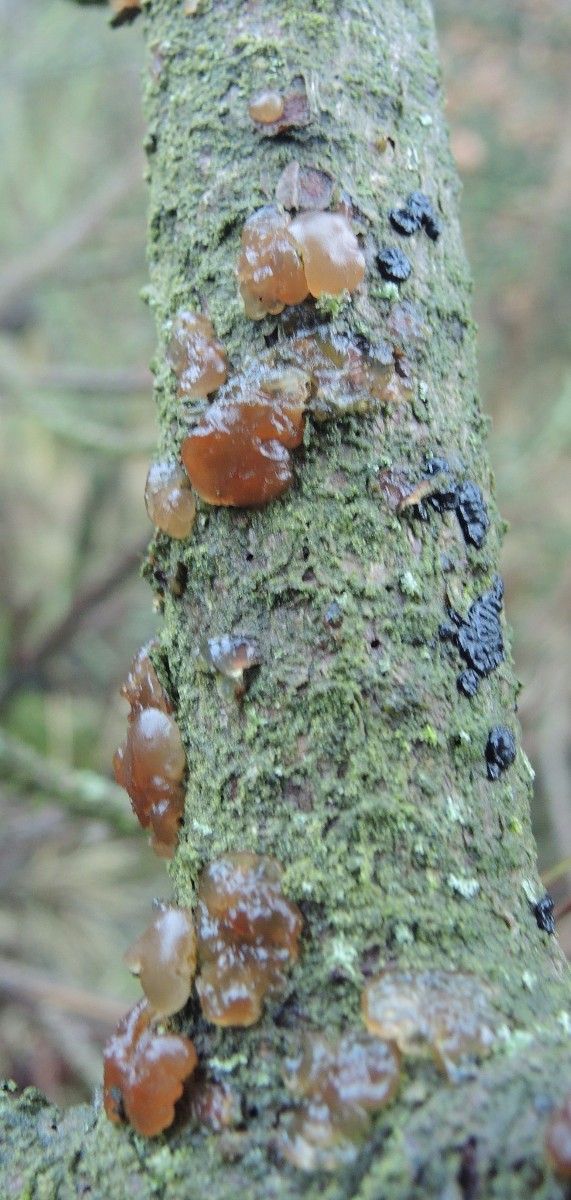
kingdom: Fungi
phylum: Basidiomycota
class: Agaricomycetes
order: Auriculariales
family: Auriculariaceae
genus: Exidia
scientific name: Exidia saccharina
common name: kandis-bævretop
